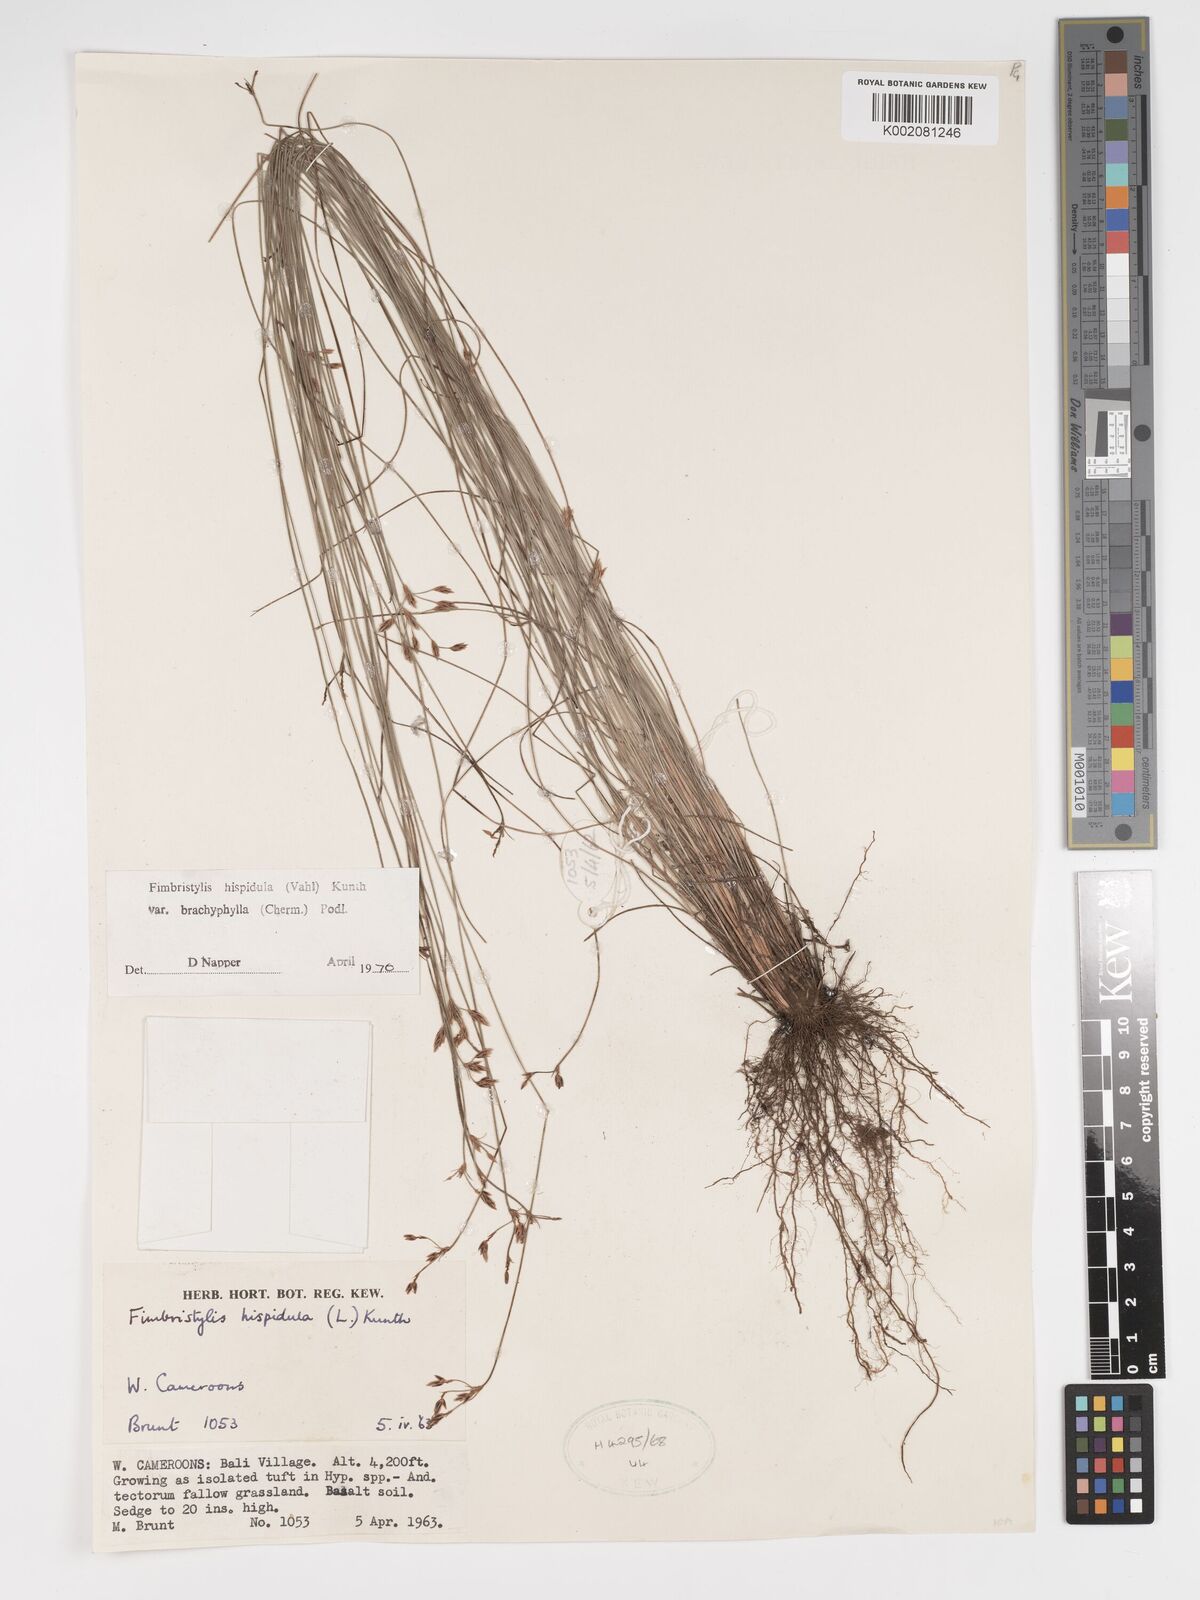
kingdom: Plantae
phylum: Tracheophyta
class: Liliopsida
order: Poales
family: Cyperaceae
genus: Bulbostylis
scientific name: Bulbostylis hispidula
